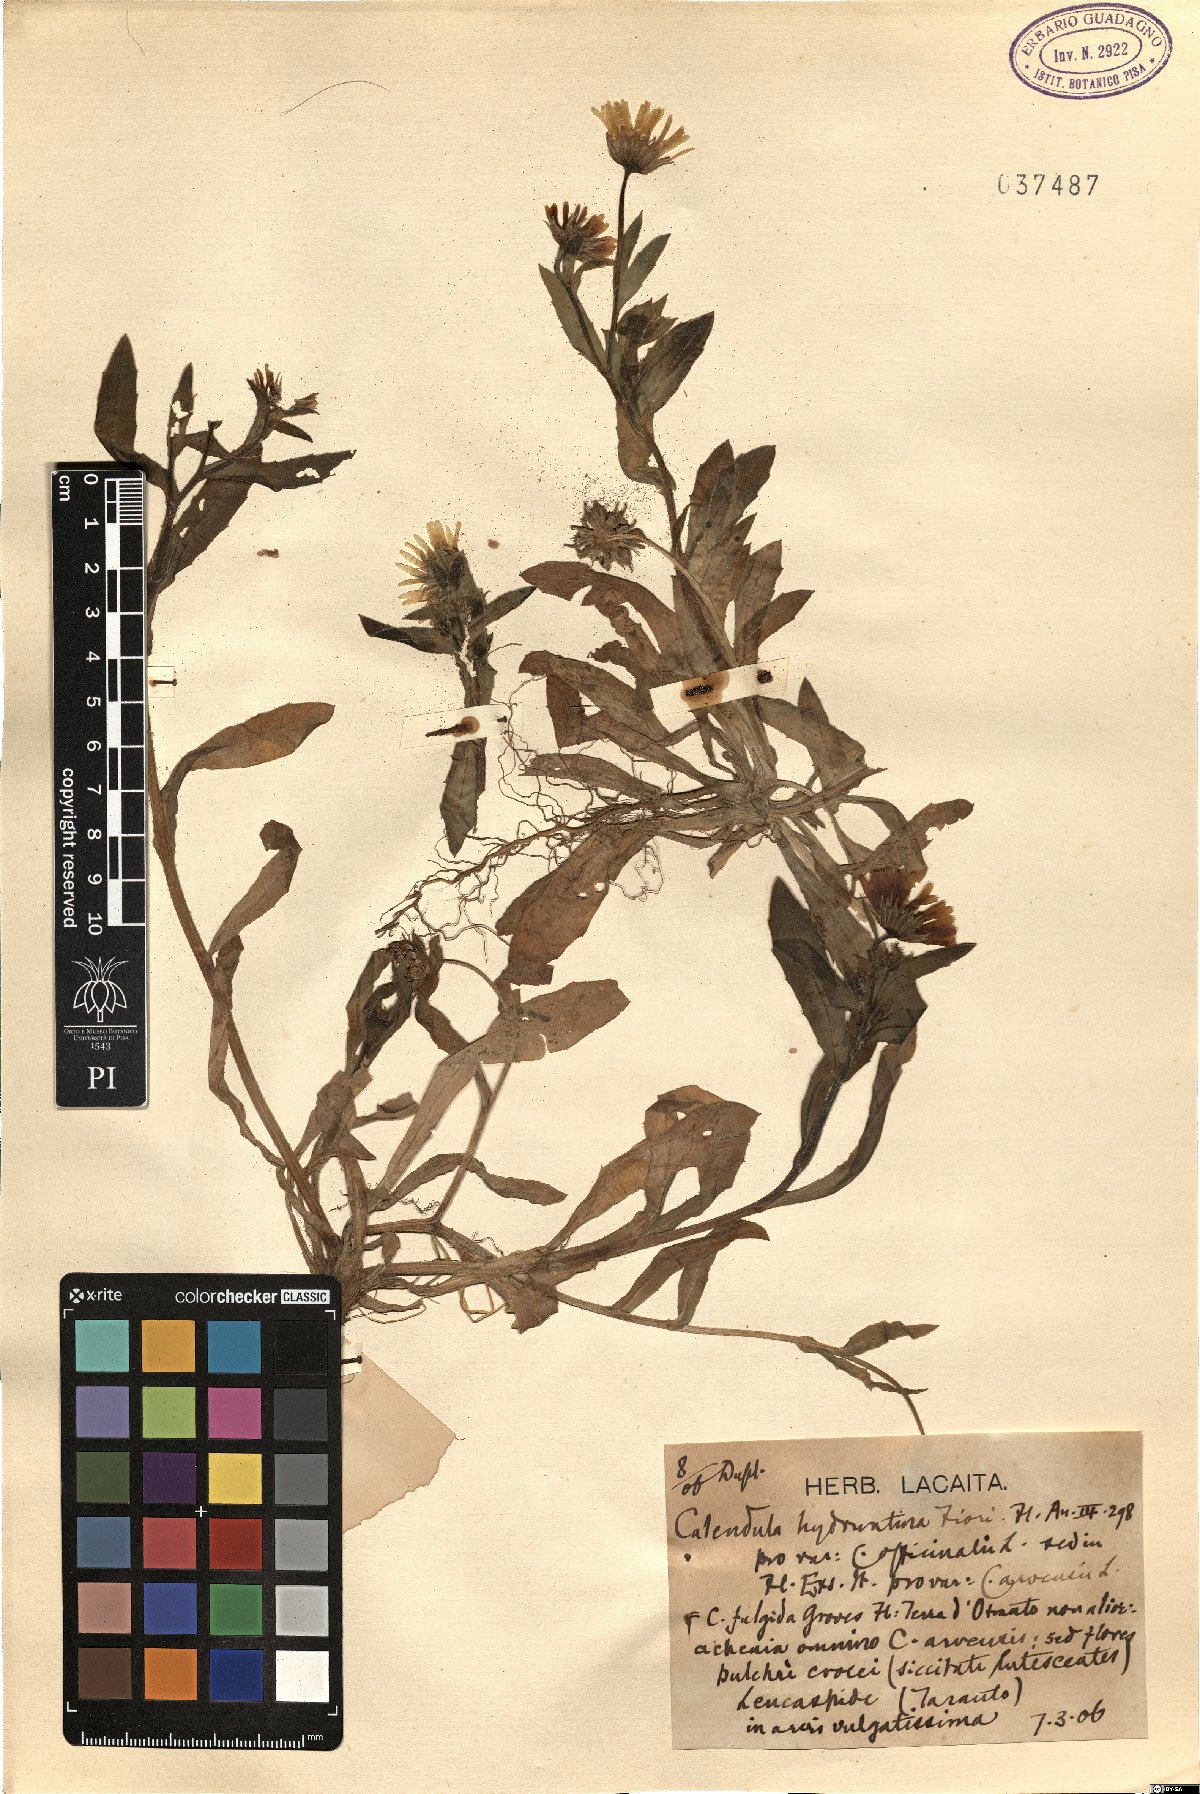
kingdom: Plantae
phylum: Tracheophyta
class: Magnoliopsida
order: Asterales
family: Asteraceae
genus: Calendula
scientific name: Calendula officinalis
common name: Pot marigold
